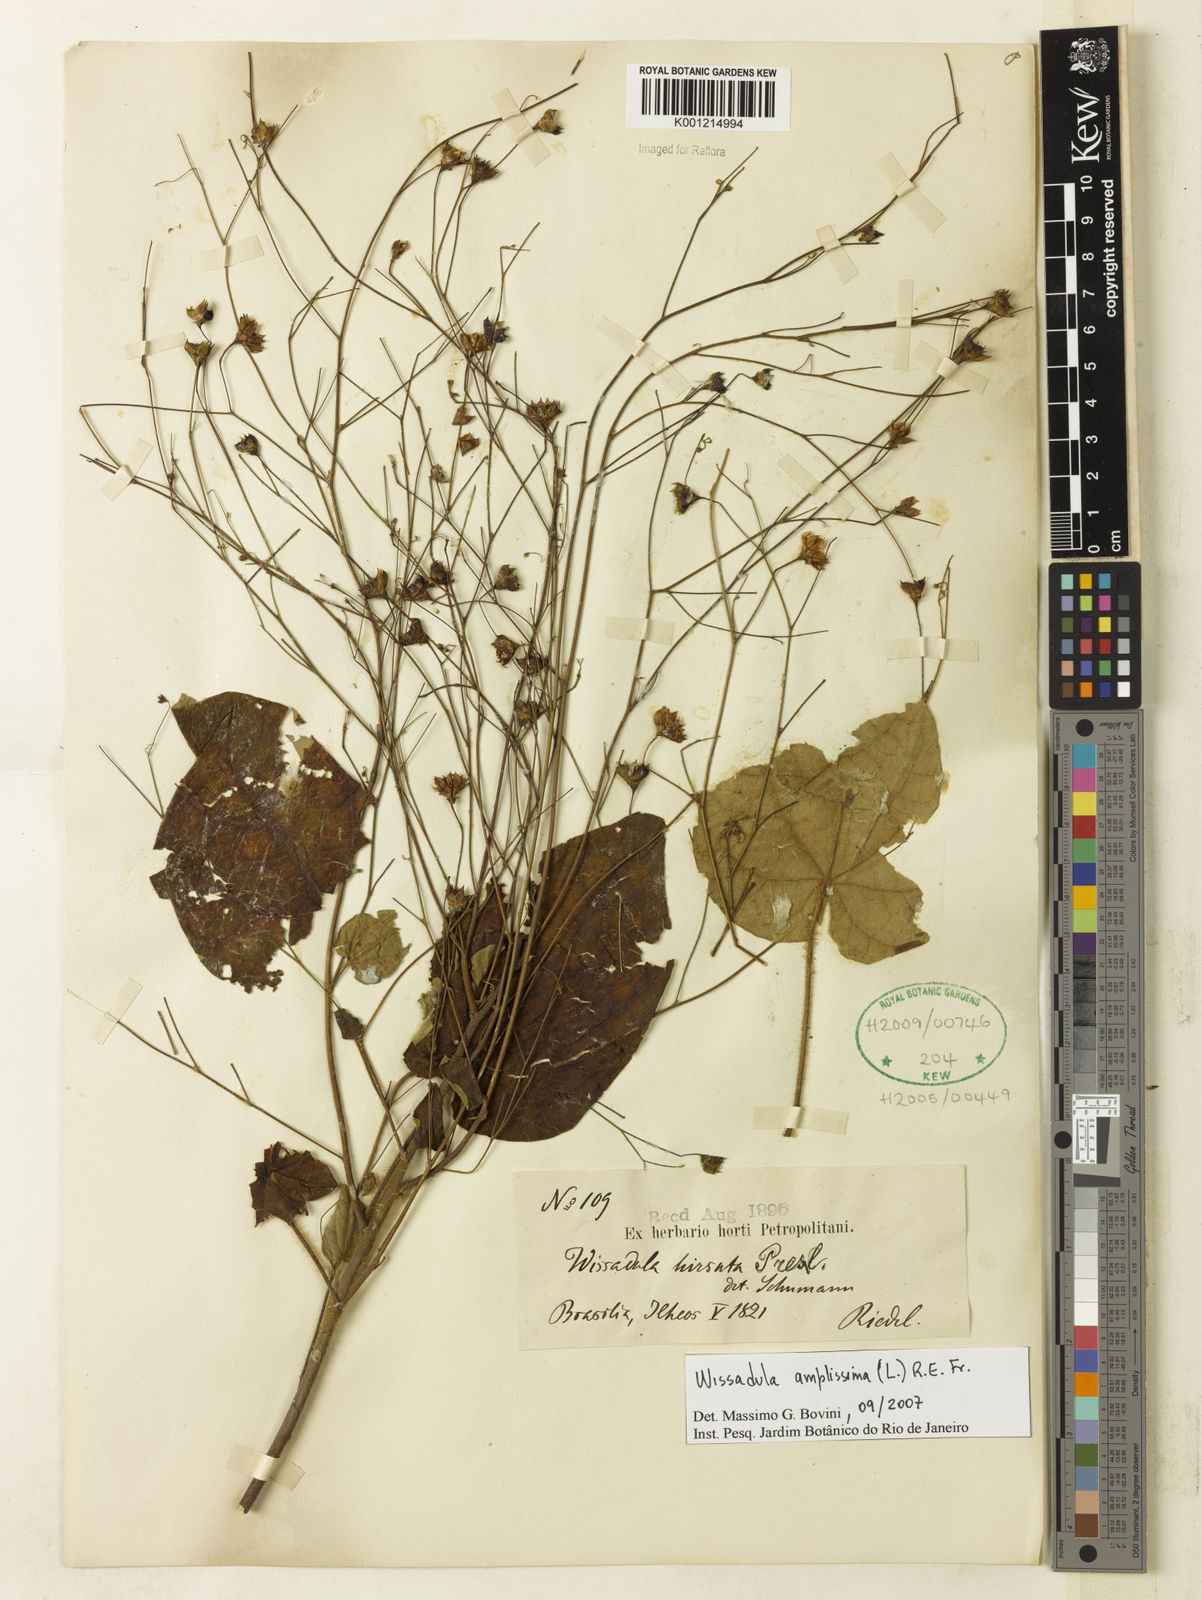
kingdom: Plantae
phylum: Tracheophyta
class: Magnoliopsida
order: Malvales
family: Malvaceae
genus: Wissadula
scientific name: Wissadula amplissima
